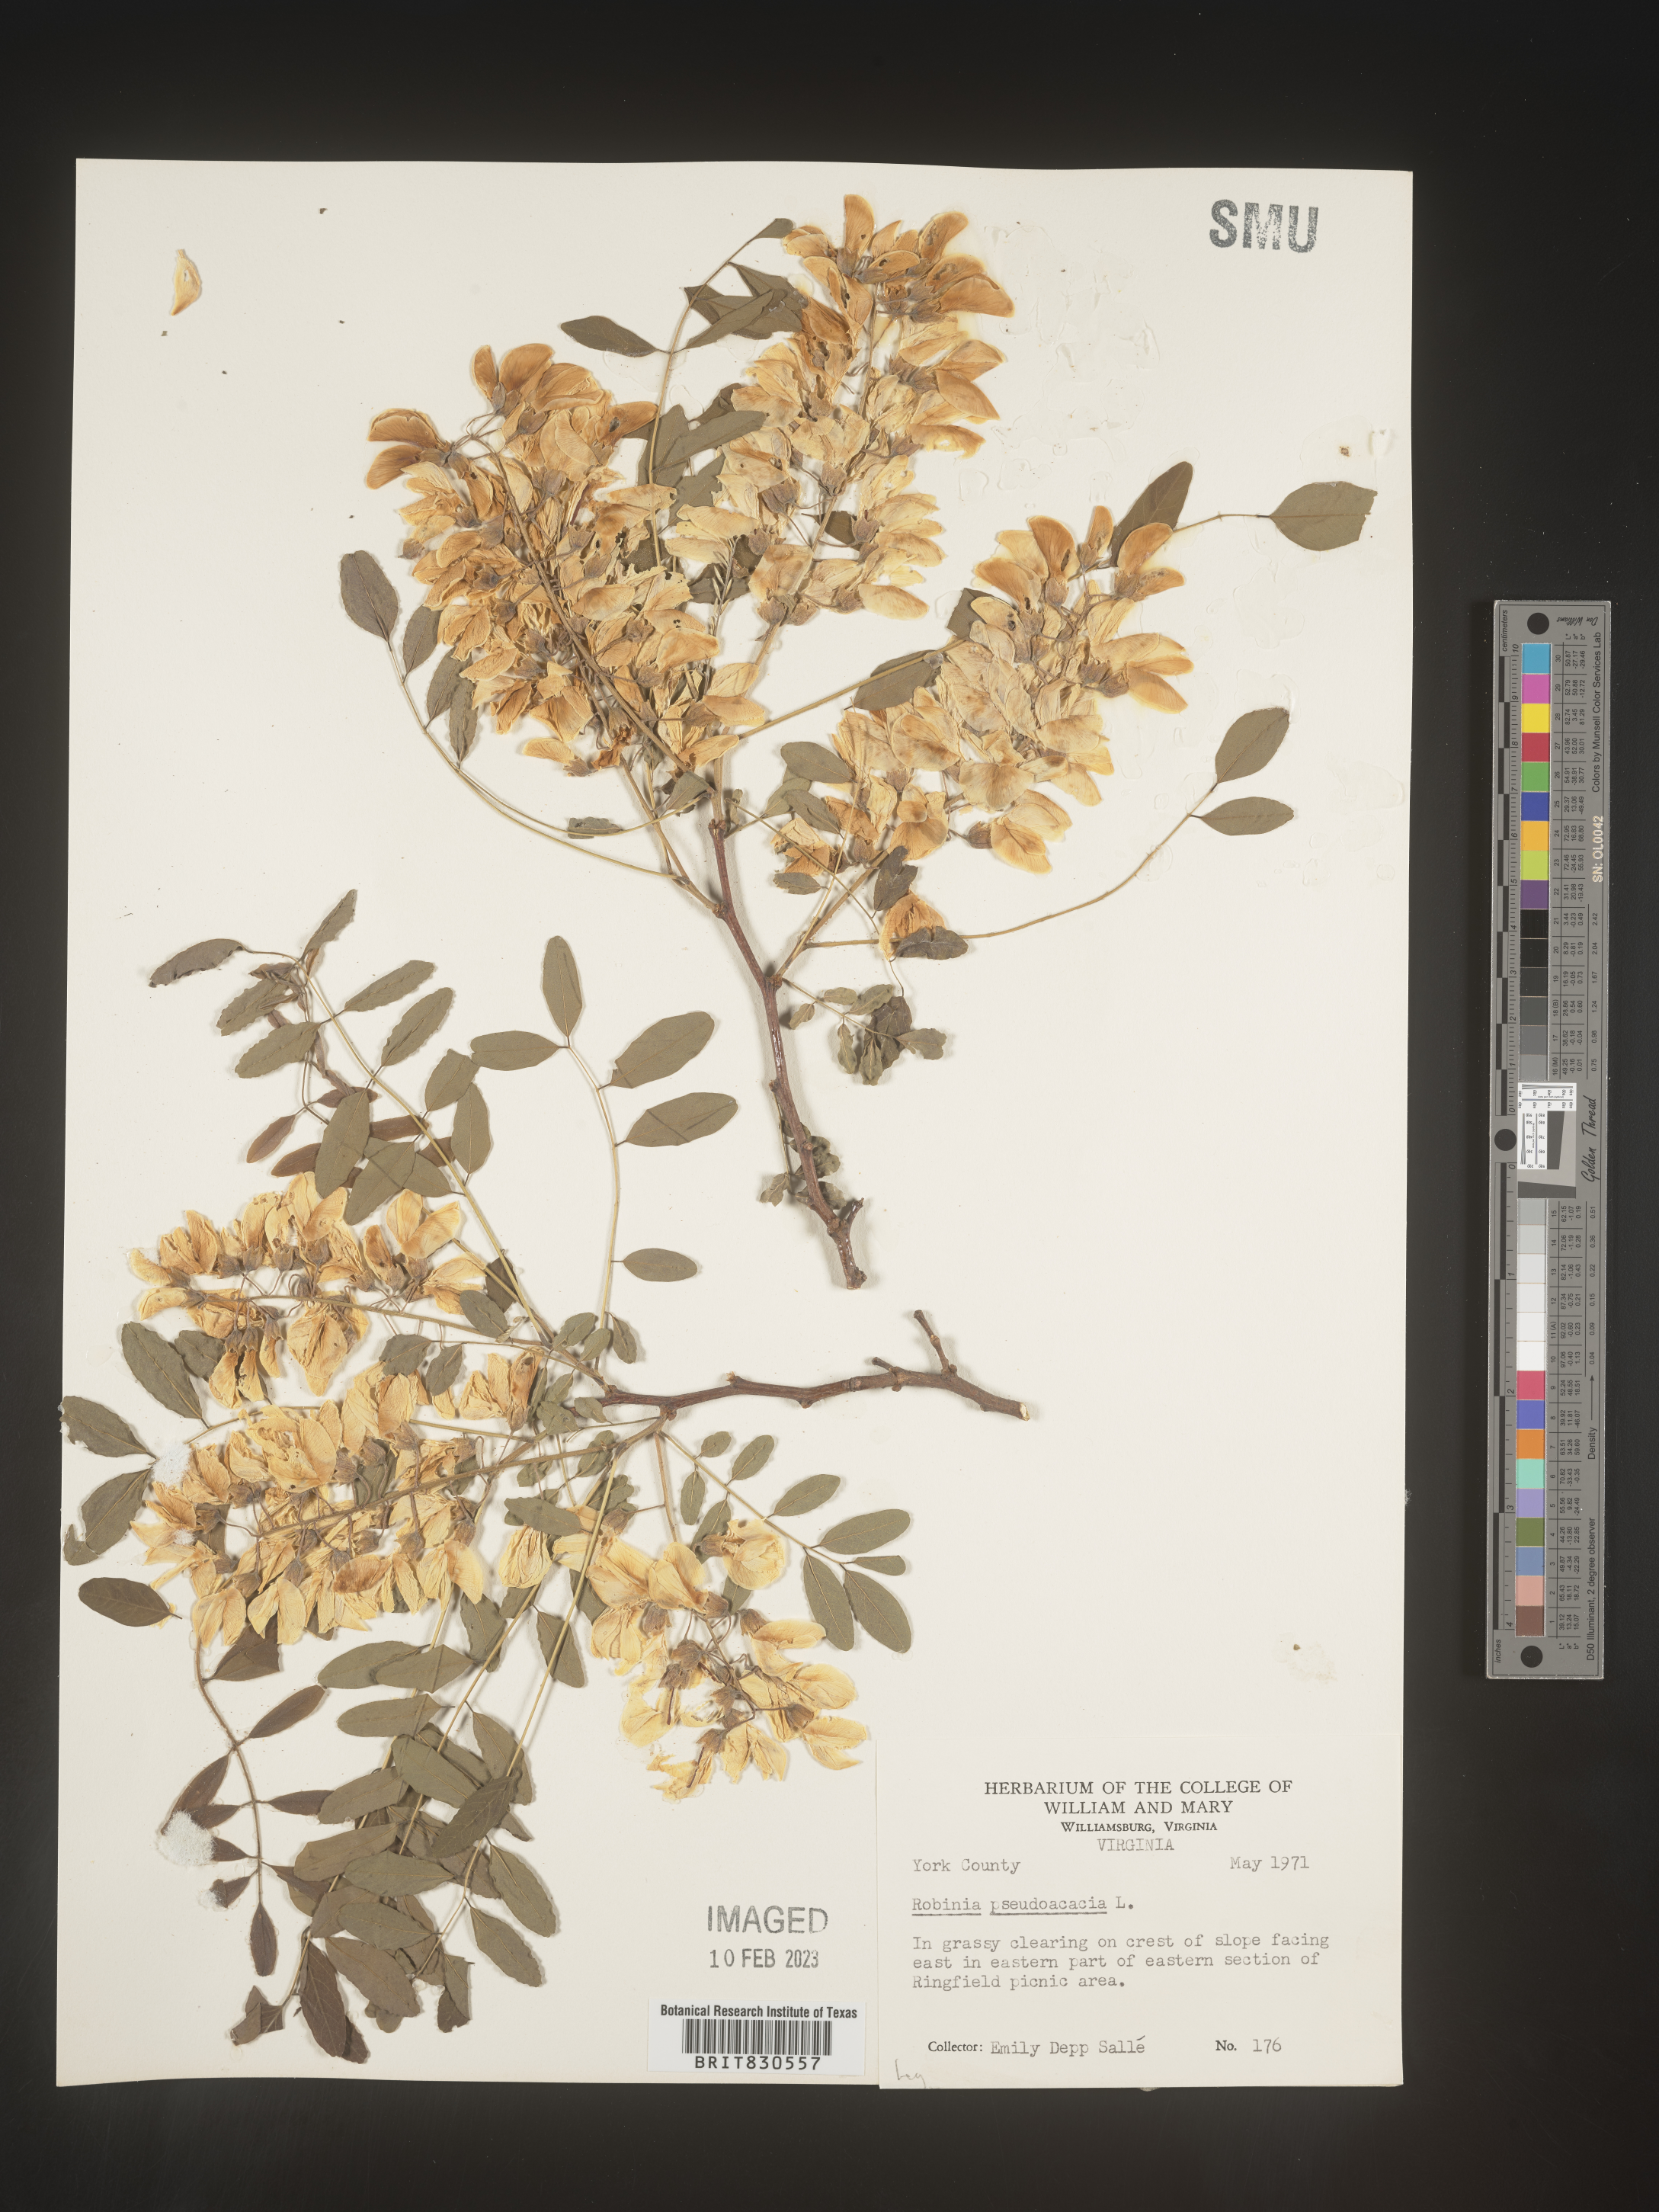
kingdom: Plantae
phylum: Tracheophyta
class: Magnoliopsida
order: Fabales
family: Fabaceae
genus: Robinia
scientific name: Robinia pseudoacacia
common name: Black locust
